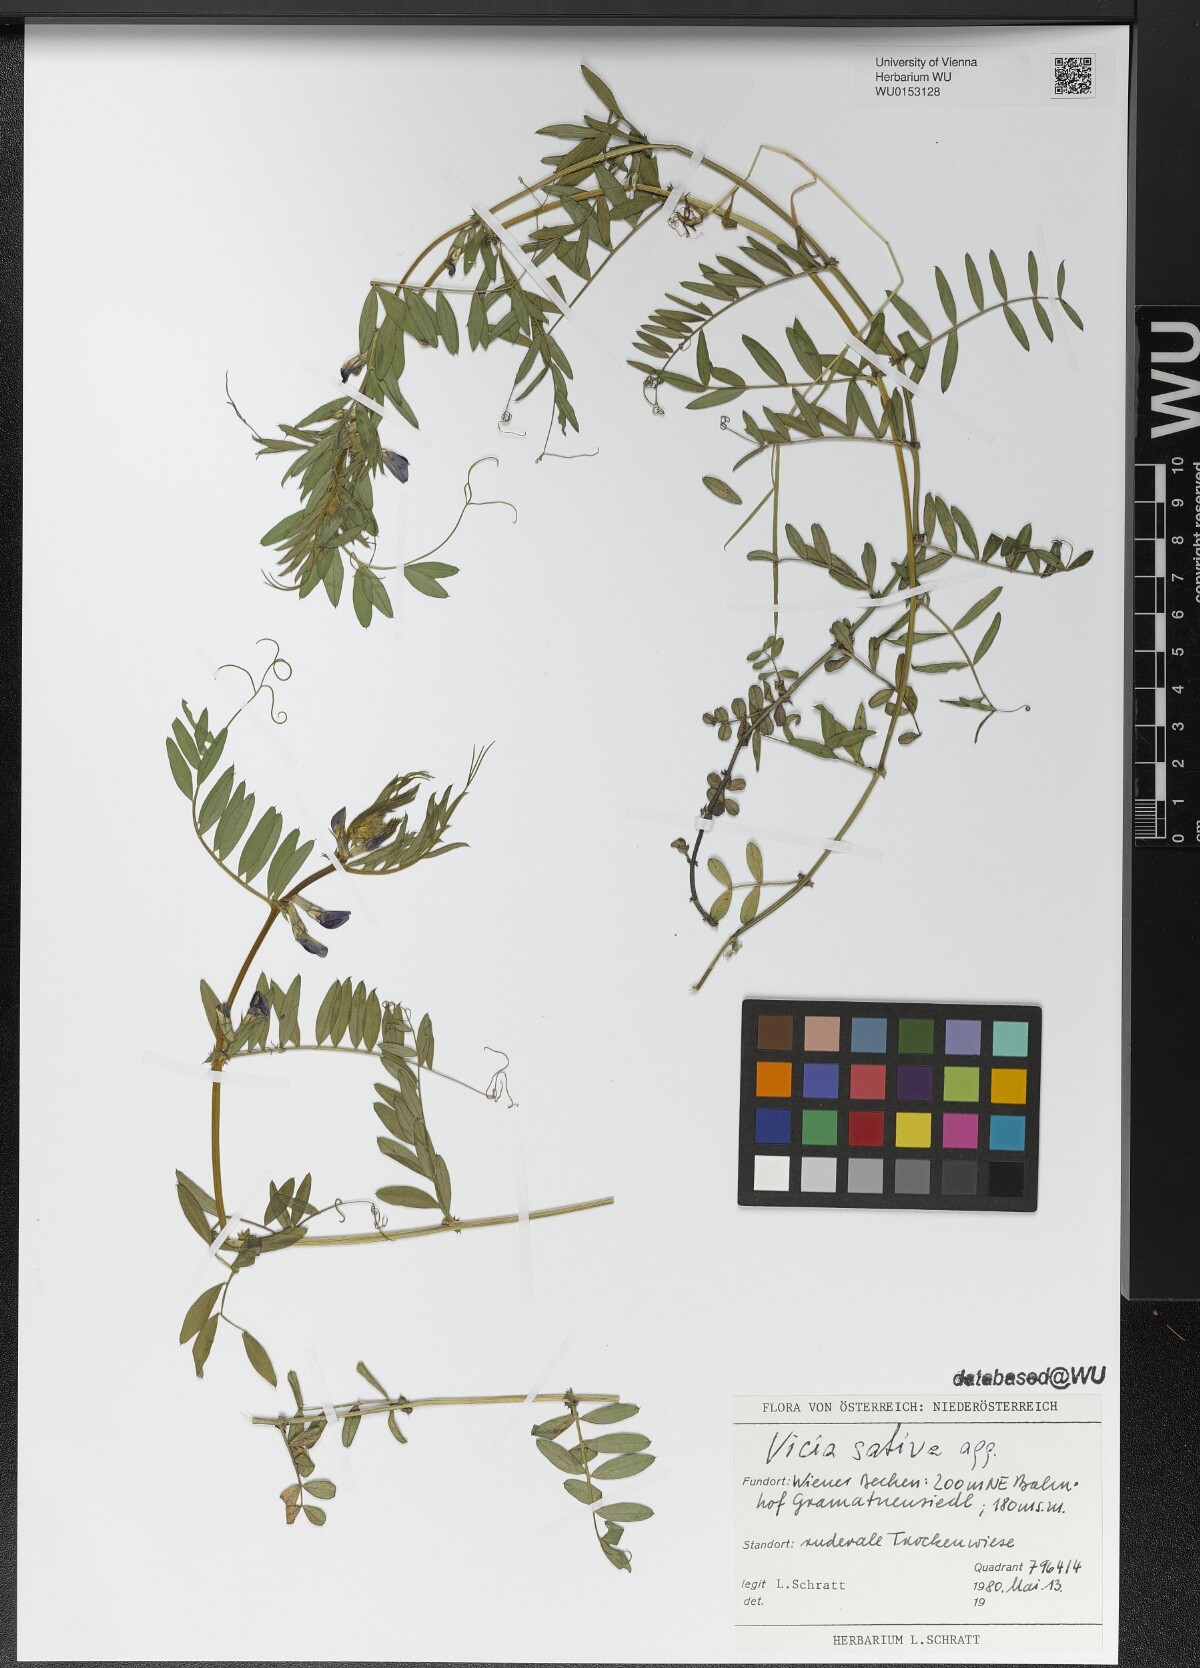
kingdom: Plantae
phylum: Tracheophyta
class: Magnoliopsida
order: Fabales
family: Fabaceae
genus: Vicia
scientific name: Vicia sativa
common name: Garden vetch
